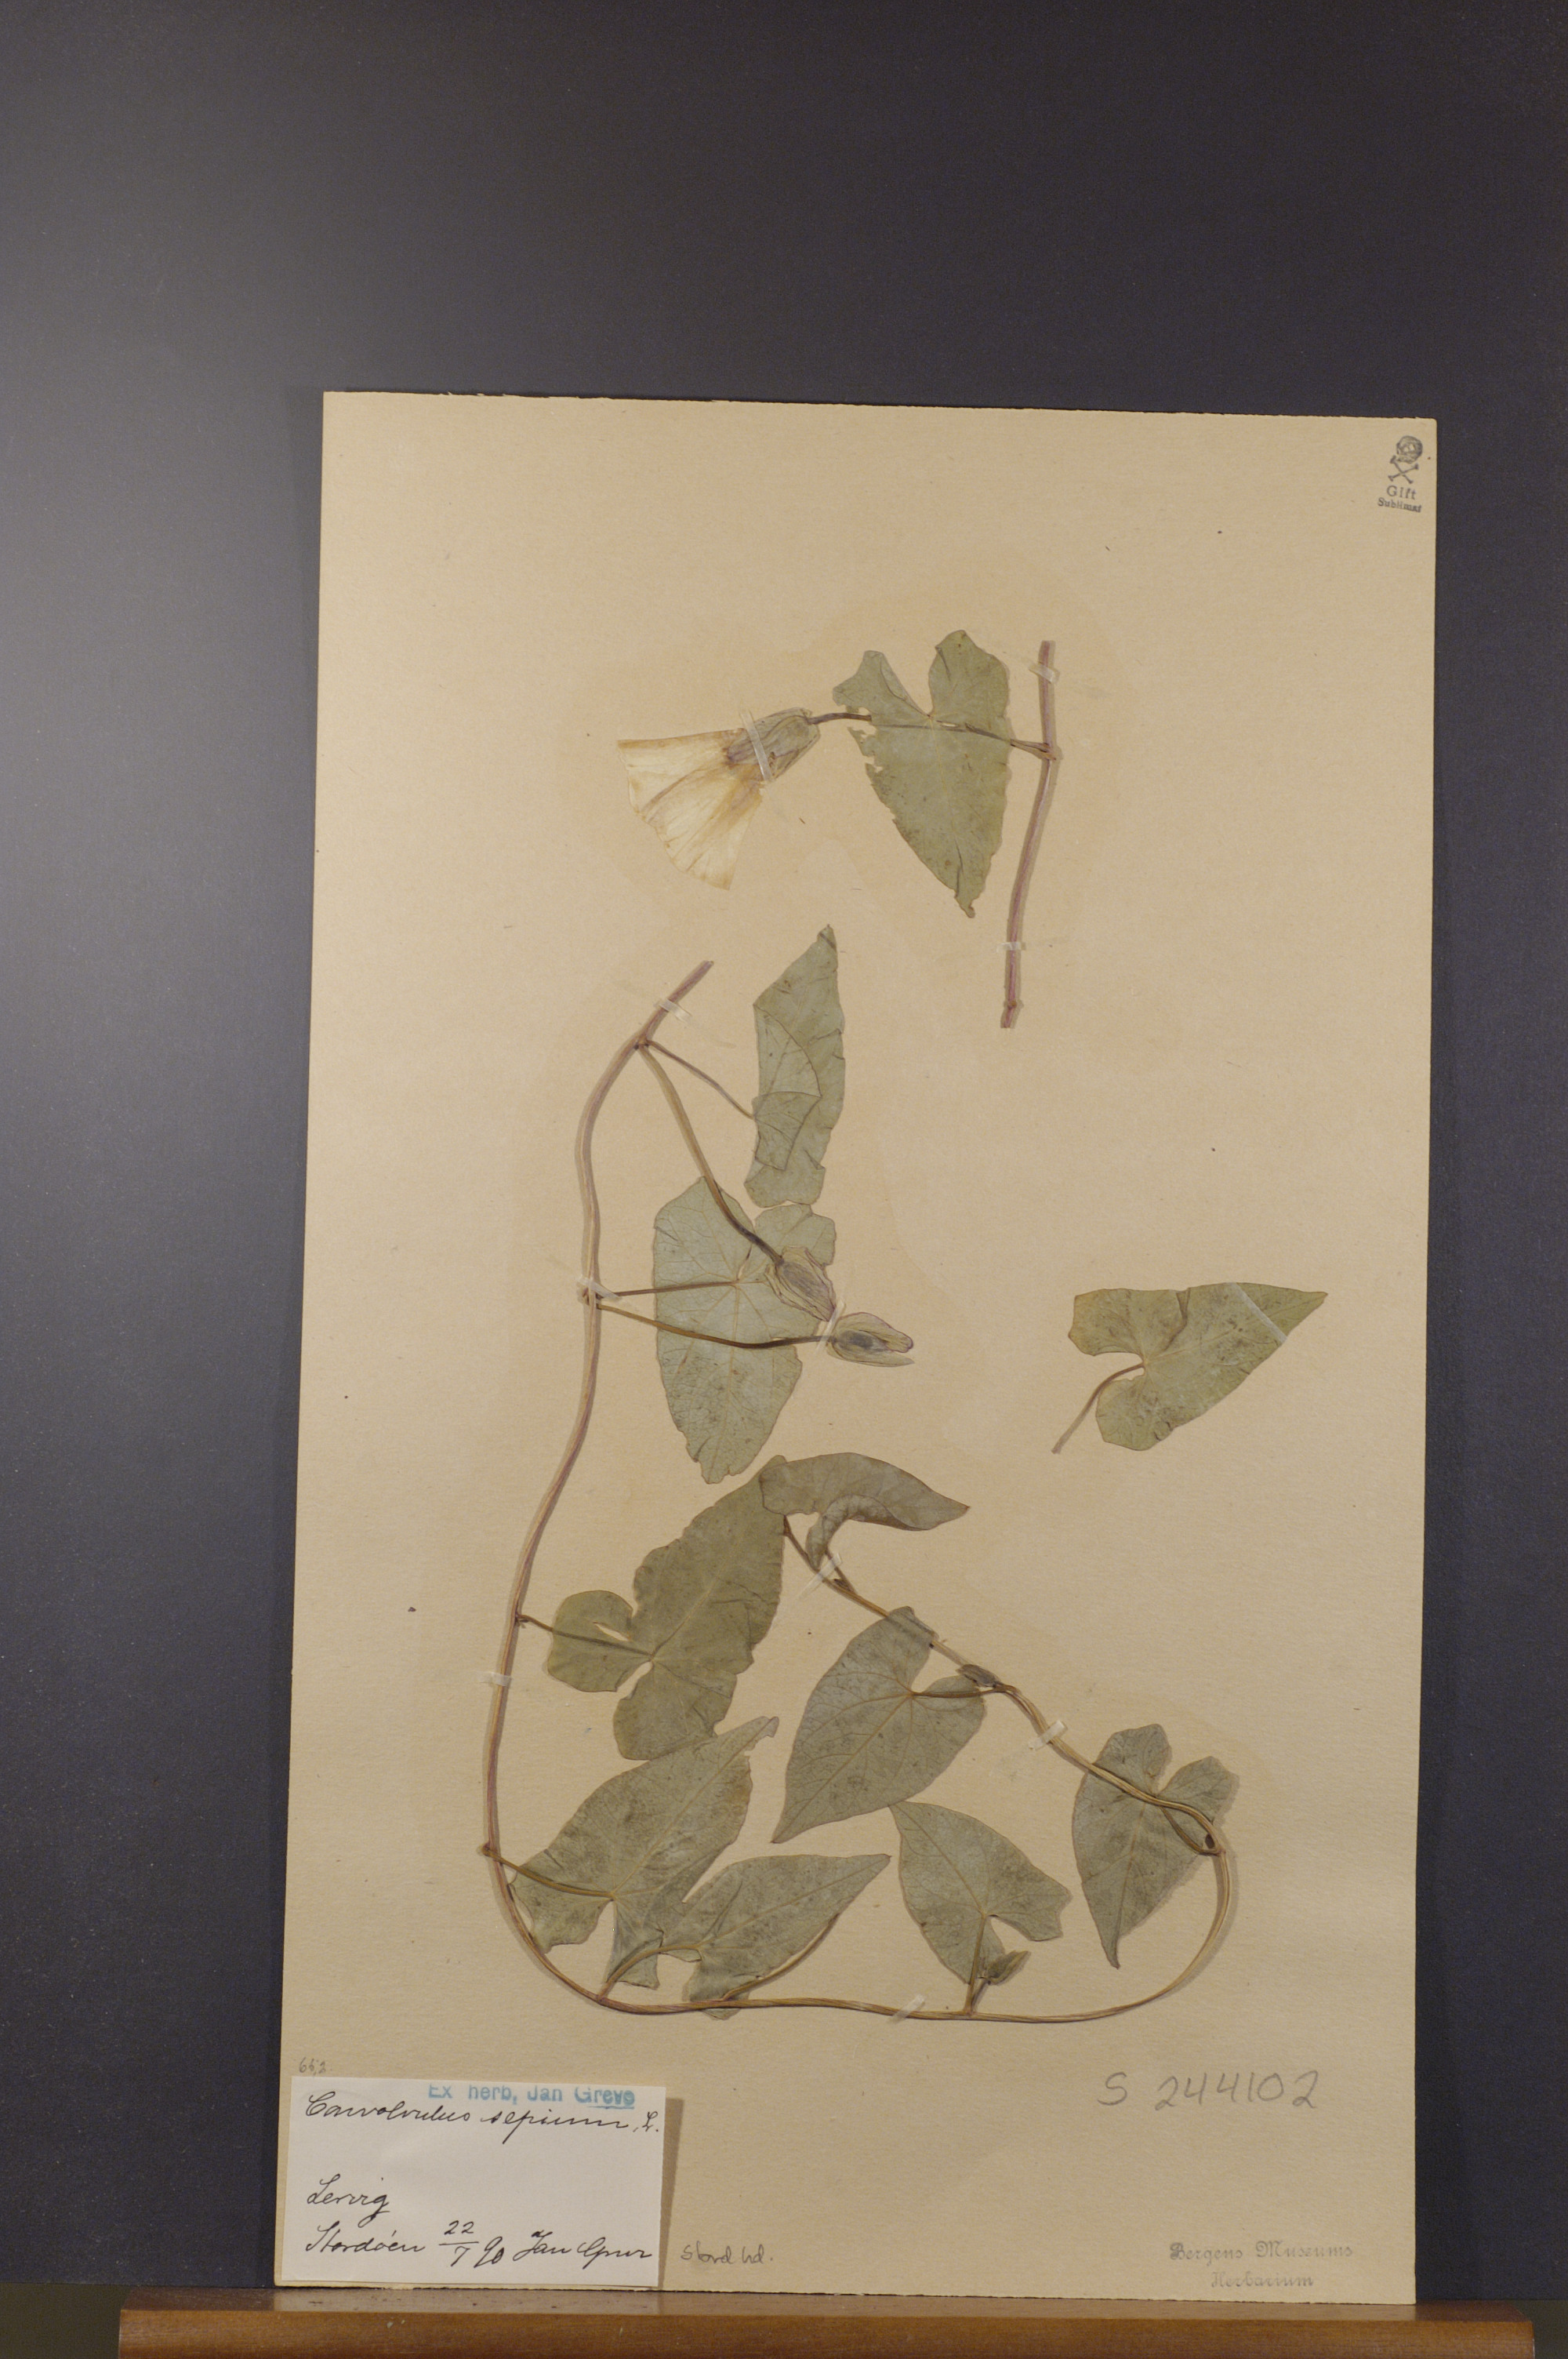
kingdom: Plantae
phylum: Tracheophyta
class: Magnoliopsida
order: Solanales
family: Convolvulaceae
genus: Calystegia
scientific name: Calystegia sepium
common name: Hedge bindweed
